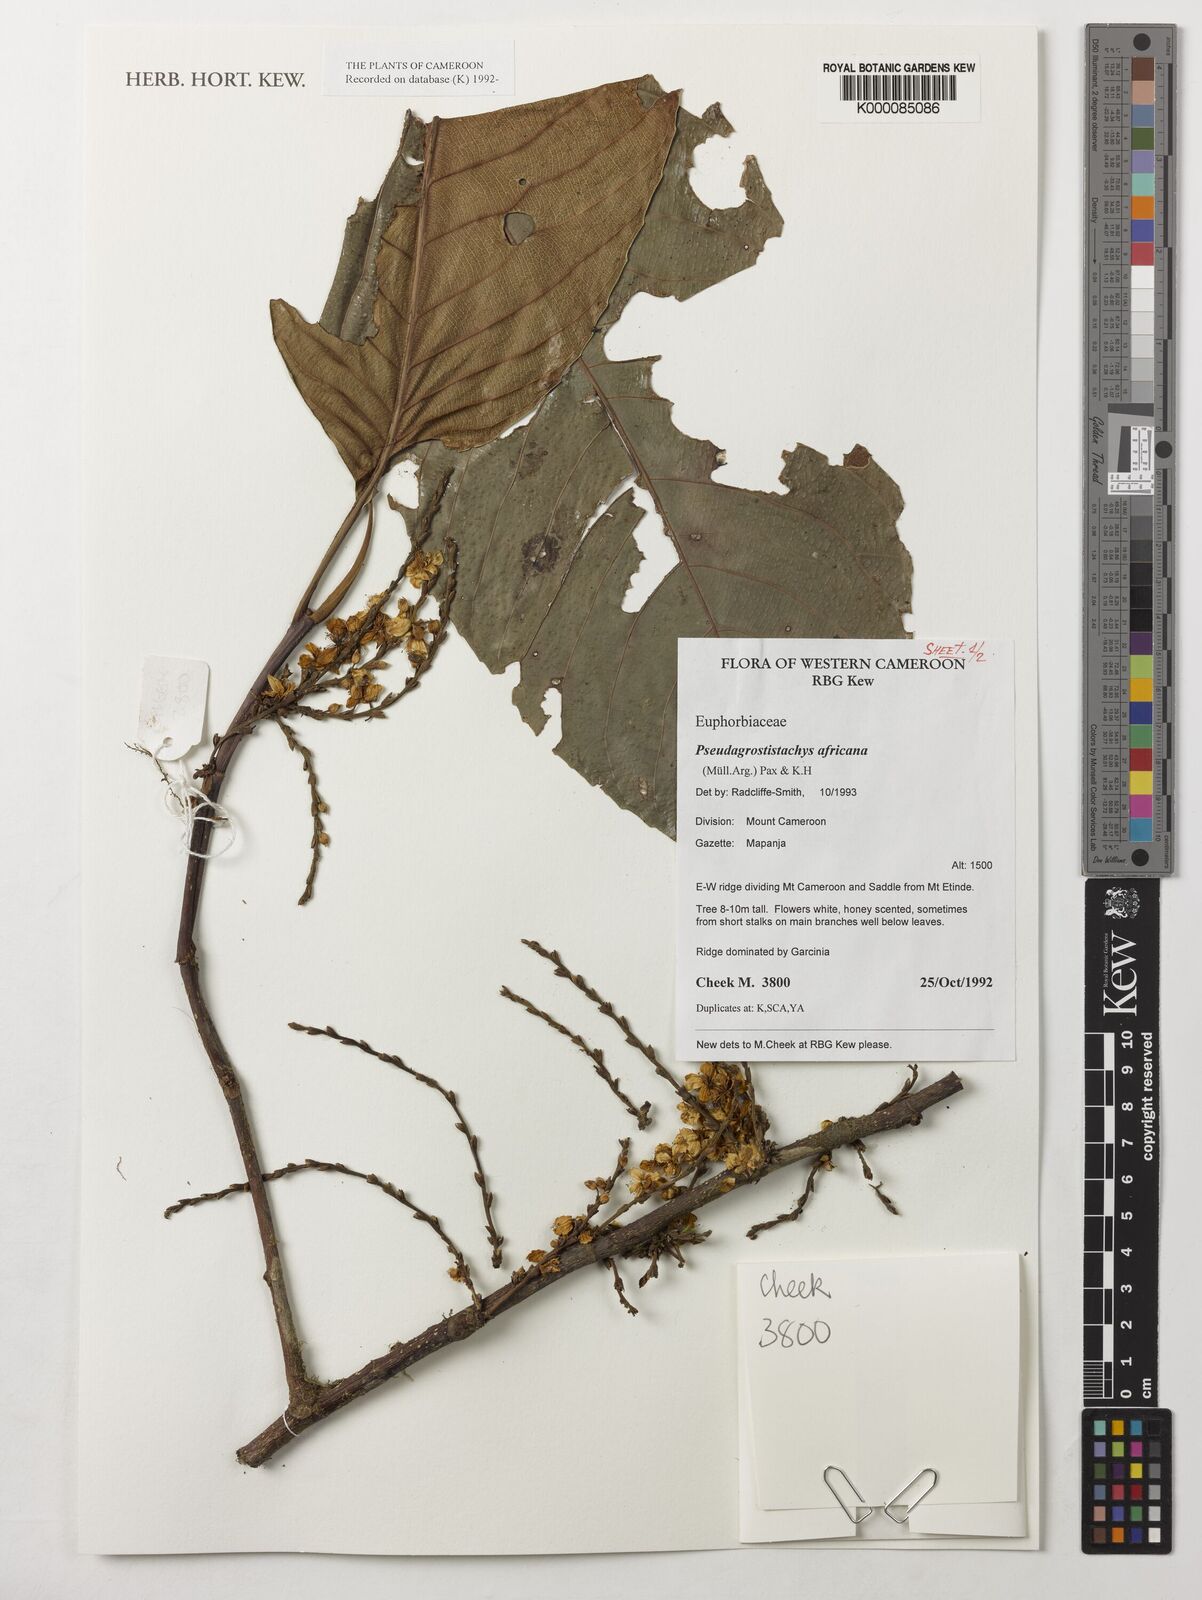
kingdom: Plantae
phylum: Tracheophyta
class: Magnoliopsida
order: Malpighiales
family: Euphorbiaceae
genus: Pseudagrostistachys
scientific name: Pseudagrostistachys
